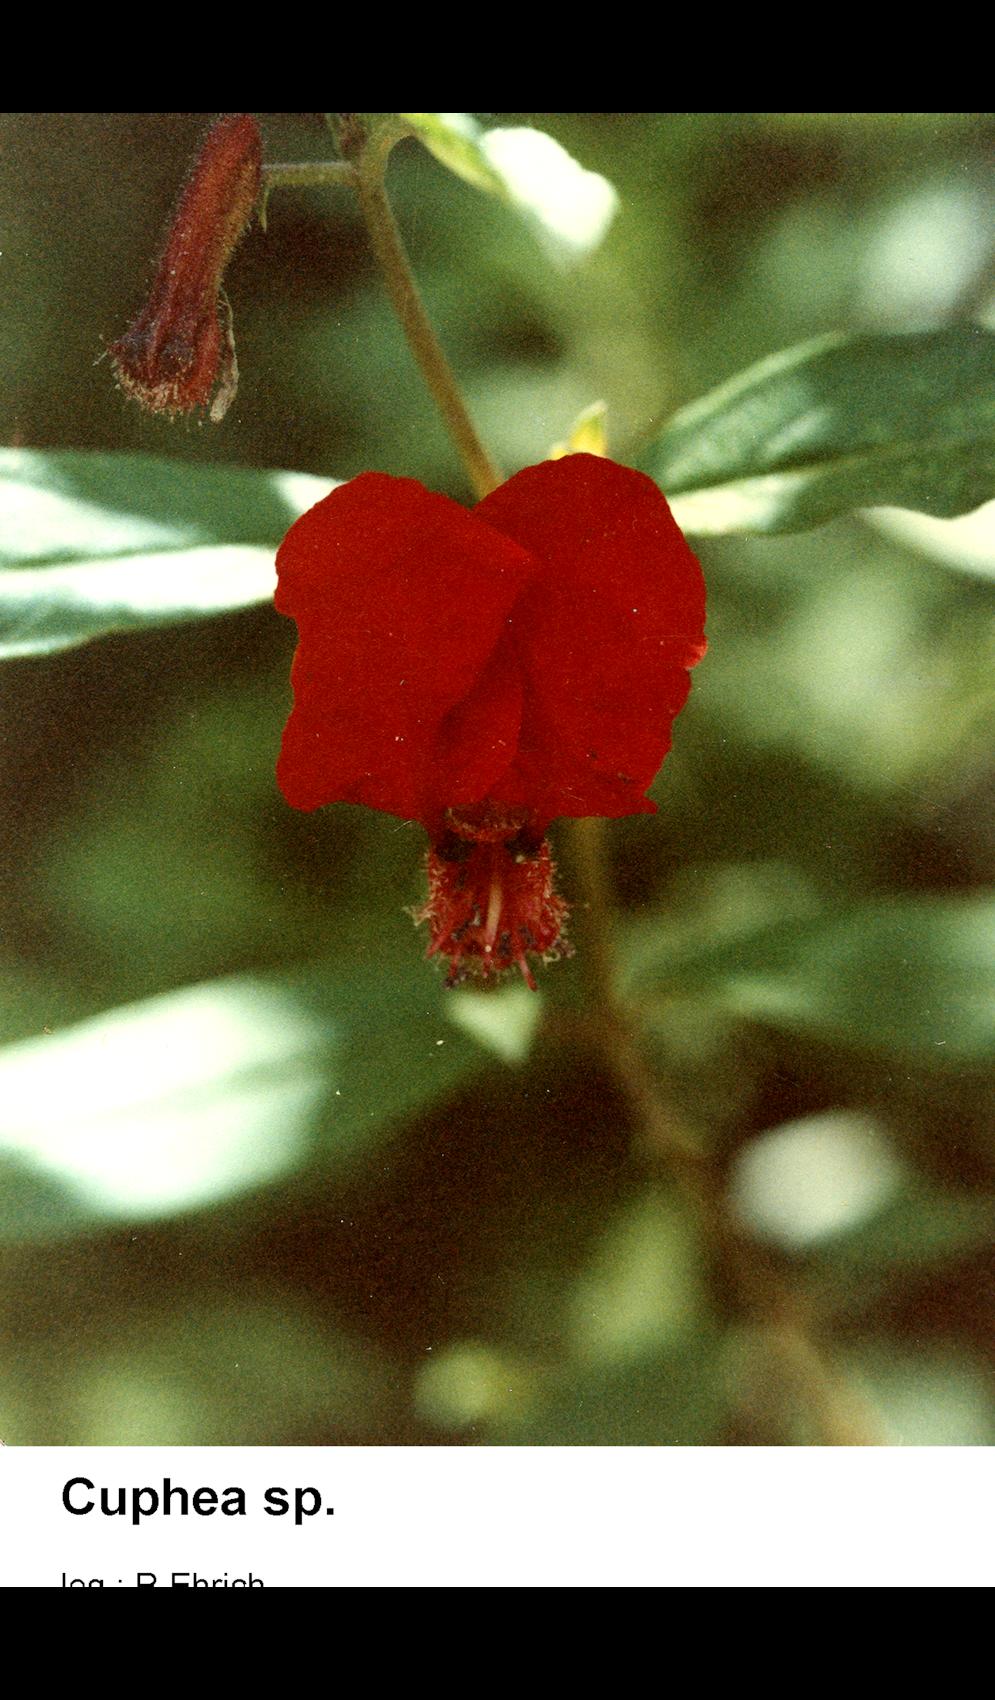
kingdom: Plantae
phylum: Tracheophyta
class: Magnoliopsida
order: Myrtales
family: Lythraceae
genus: Cuphea
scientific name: Cuphea
